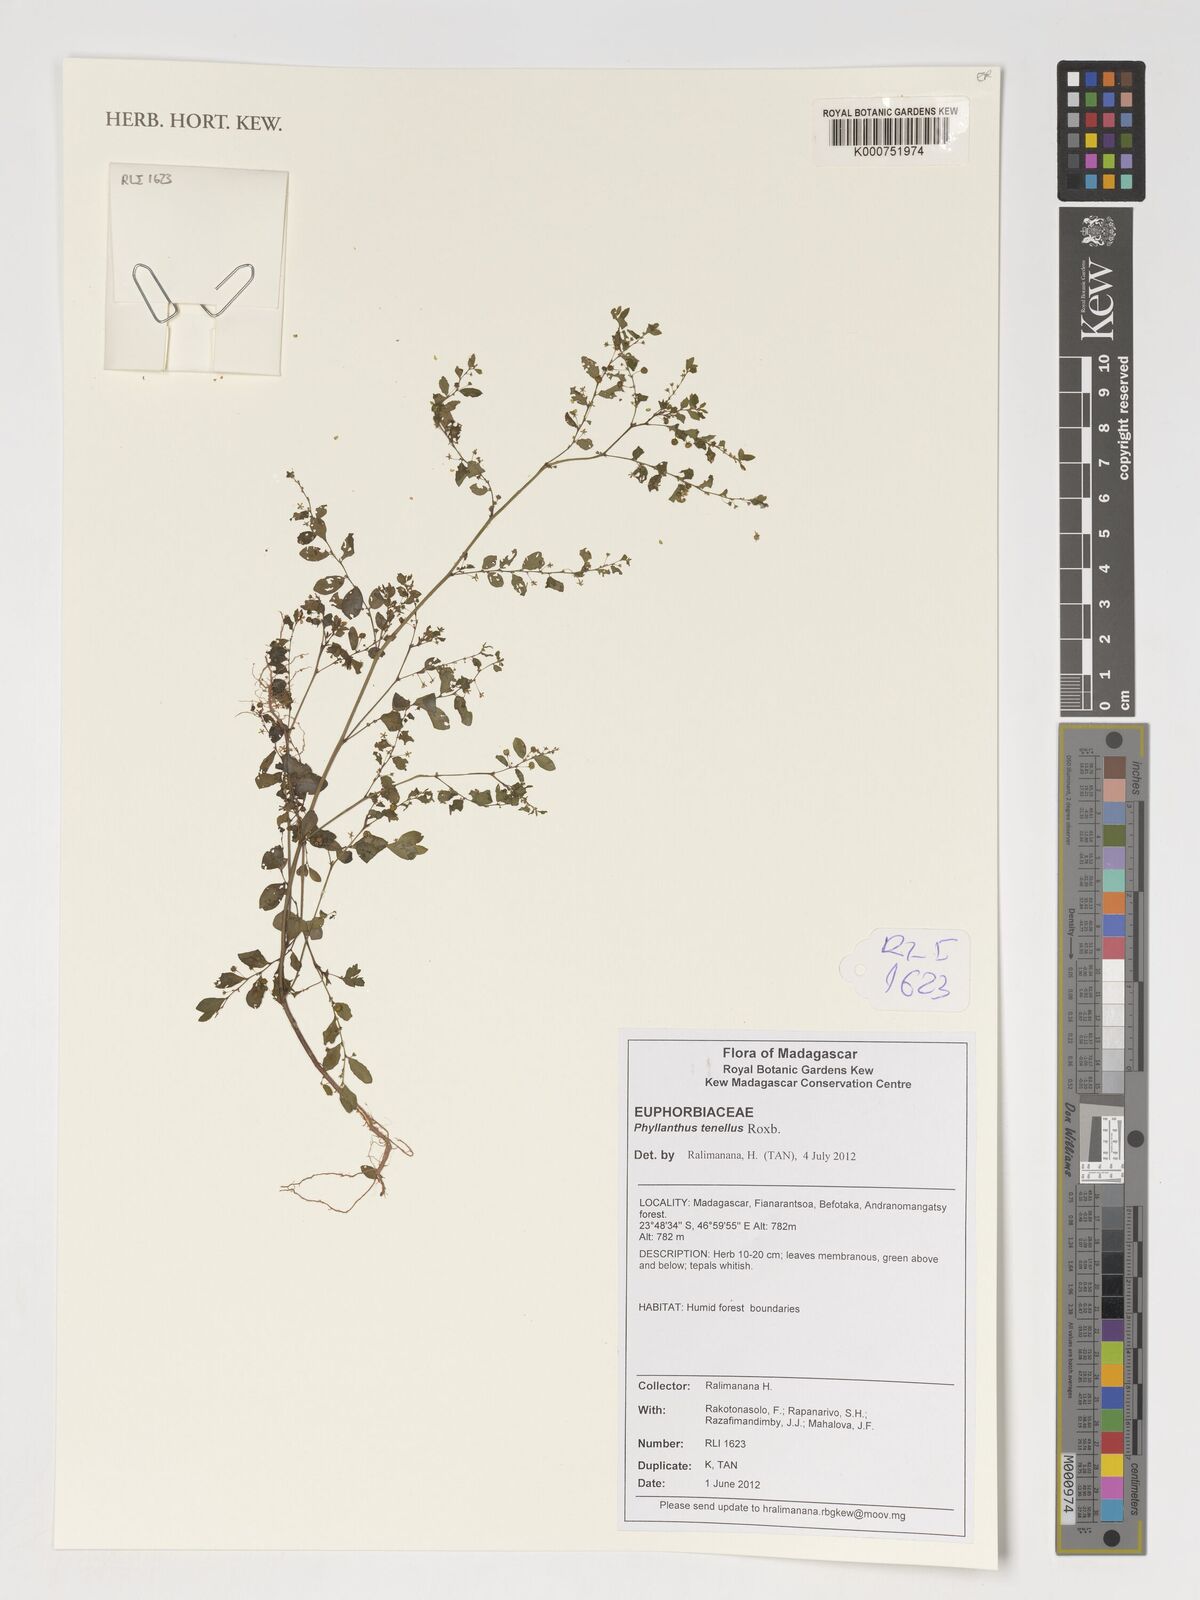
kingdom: Plantae
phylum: Tracheophyta
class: Magnoliopsida
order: Malpighiales
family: Phyllanthaceae
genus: Phyllanthus
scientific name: Phyllanthus tenellus
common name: Mascarene island leaf-flower
